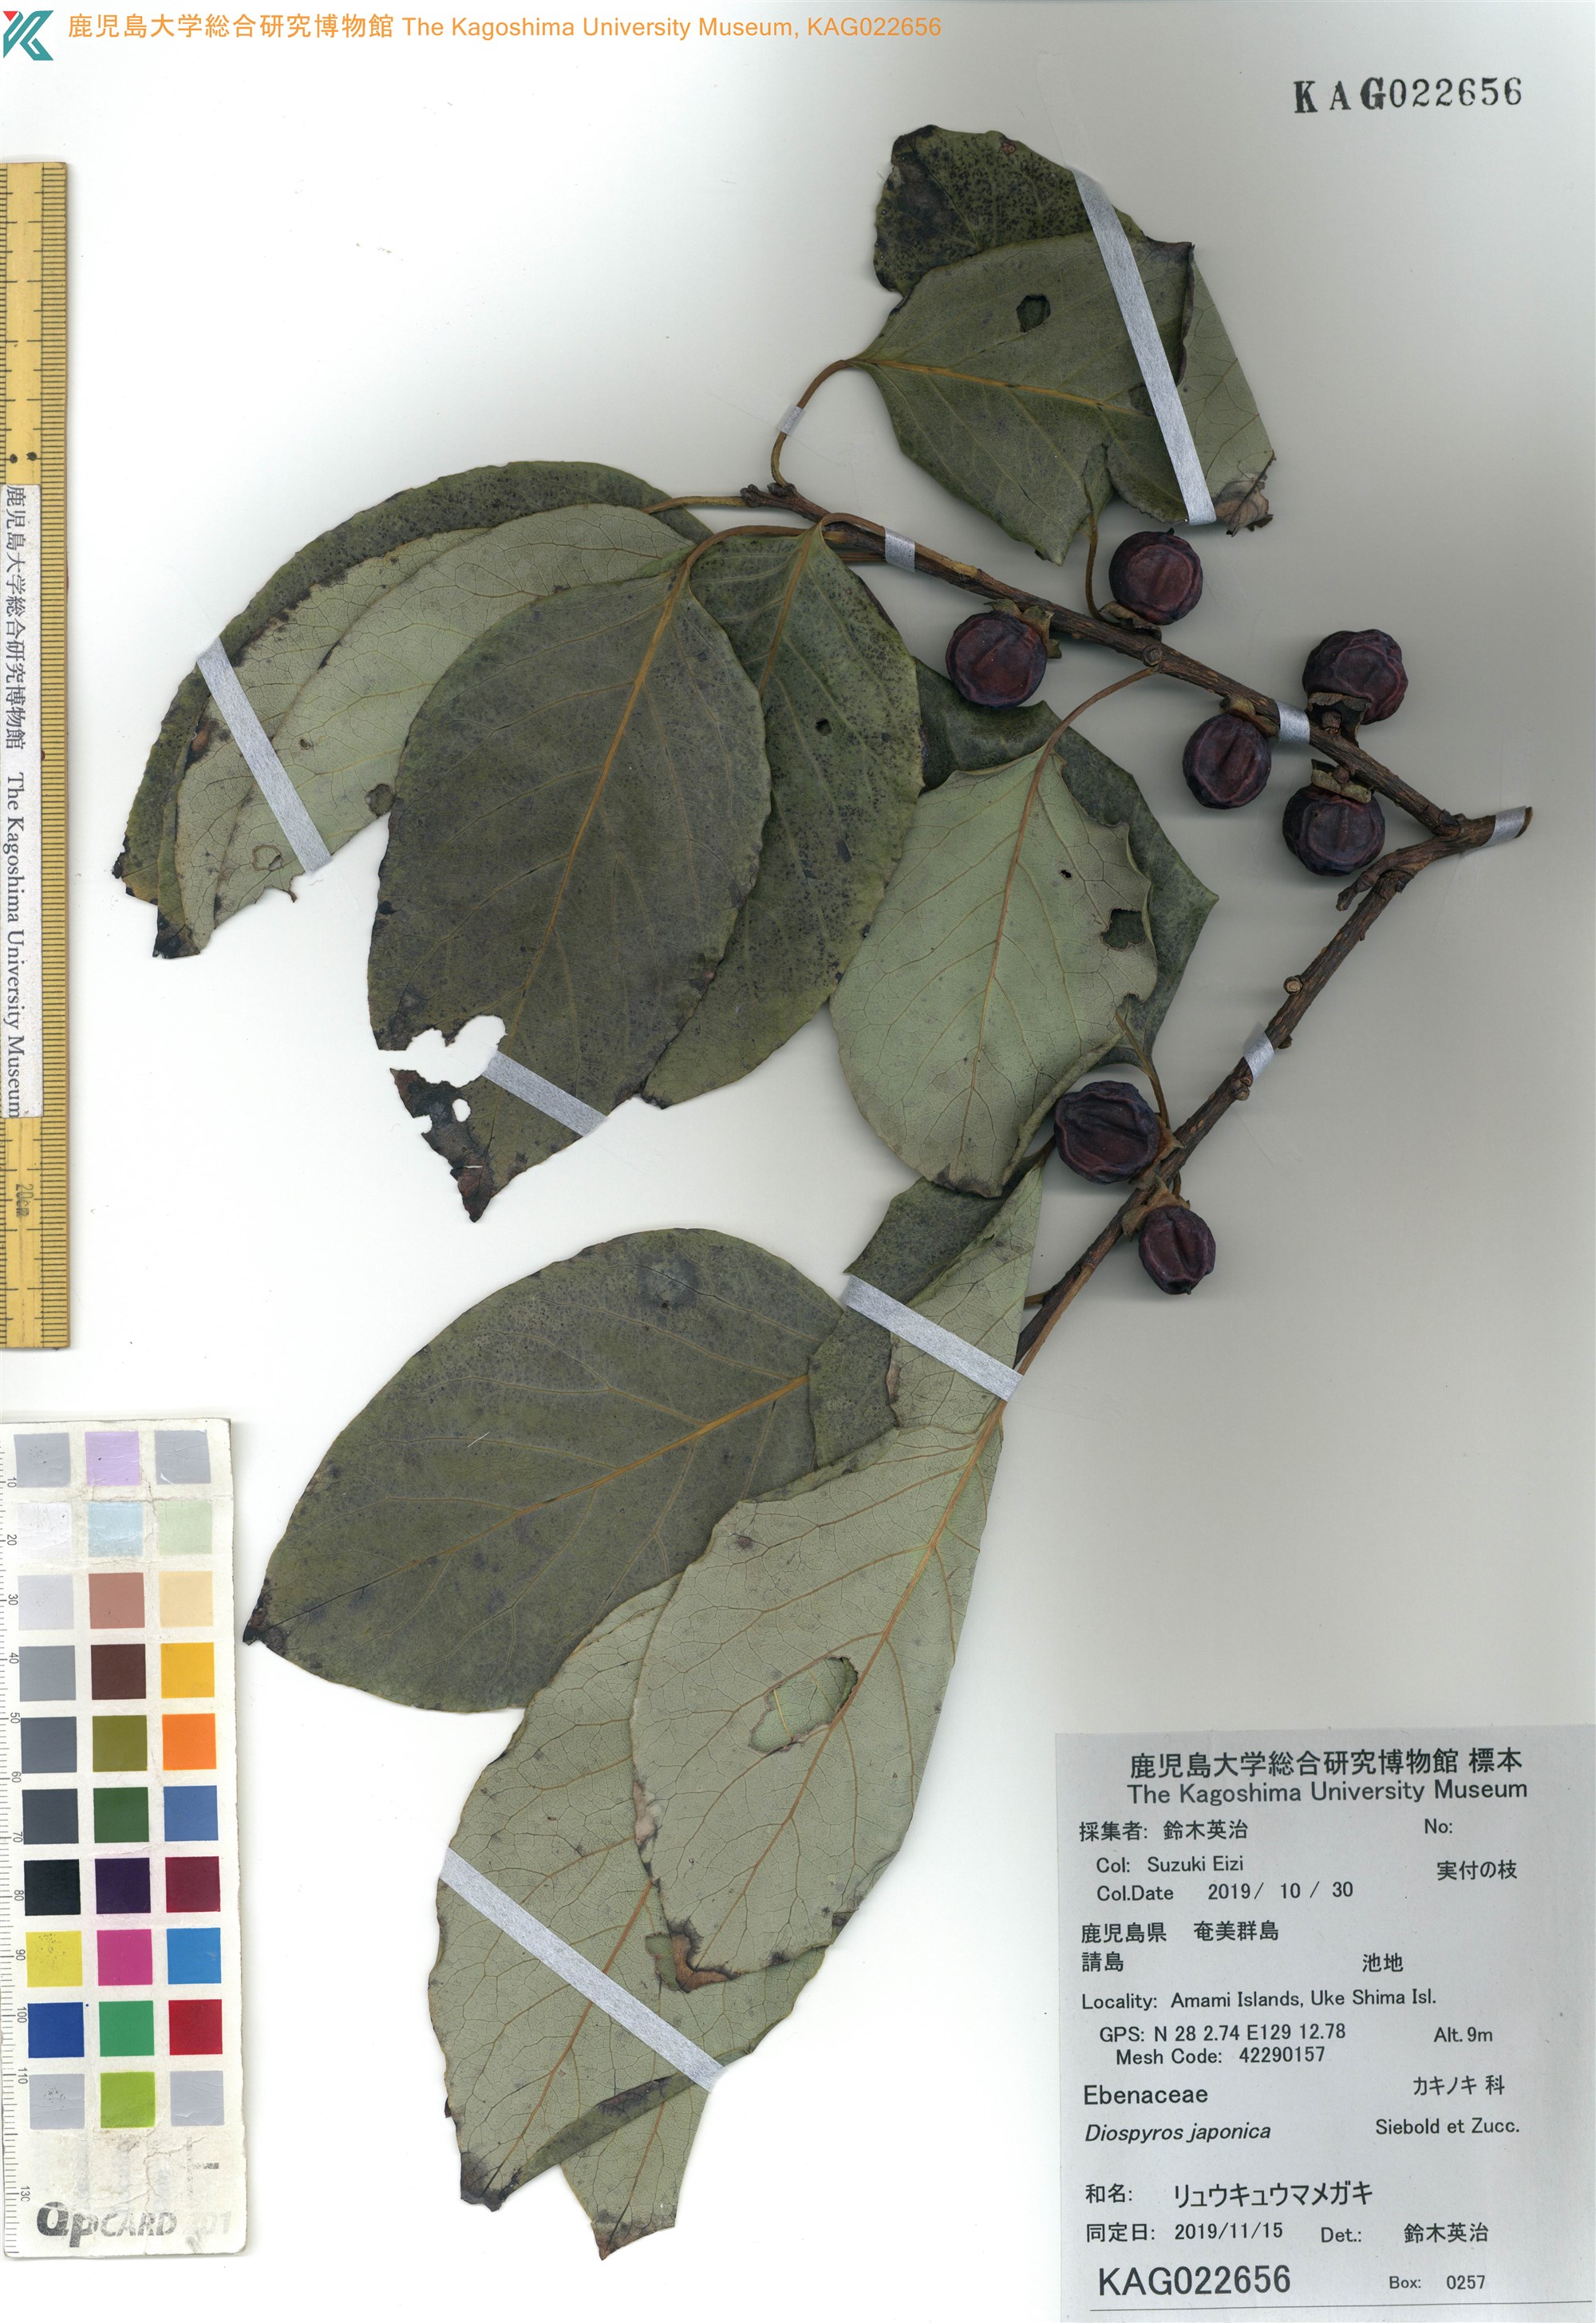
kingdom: Plantae
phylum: Tracheophyta
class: Magnoliopsida
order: Ericales
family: Ebenaceae
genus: Diospyros
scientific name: Diospyros japonica
